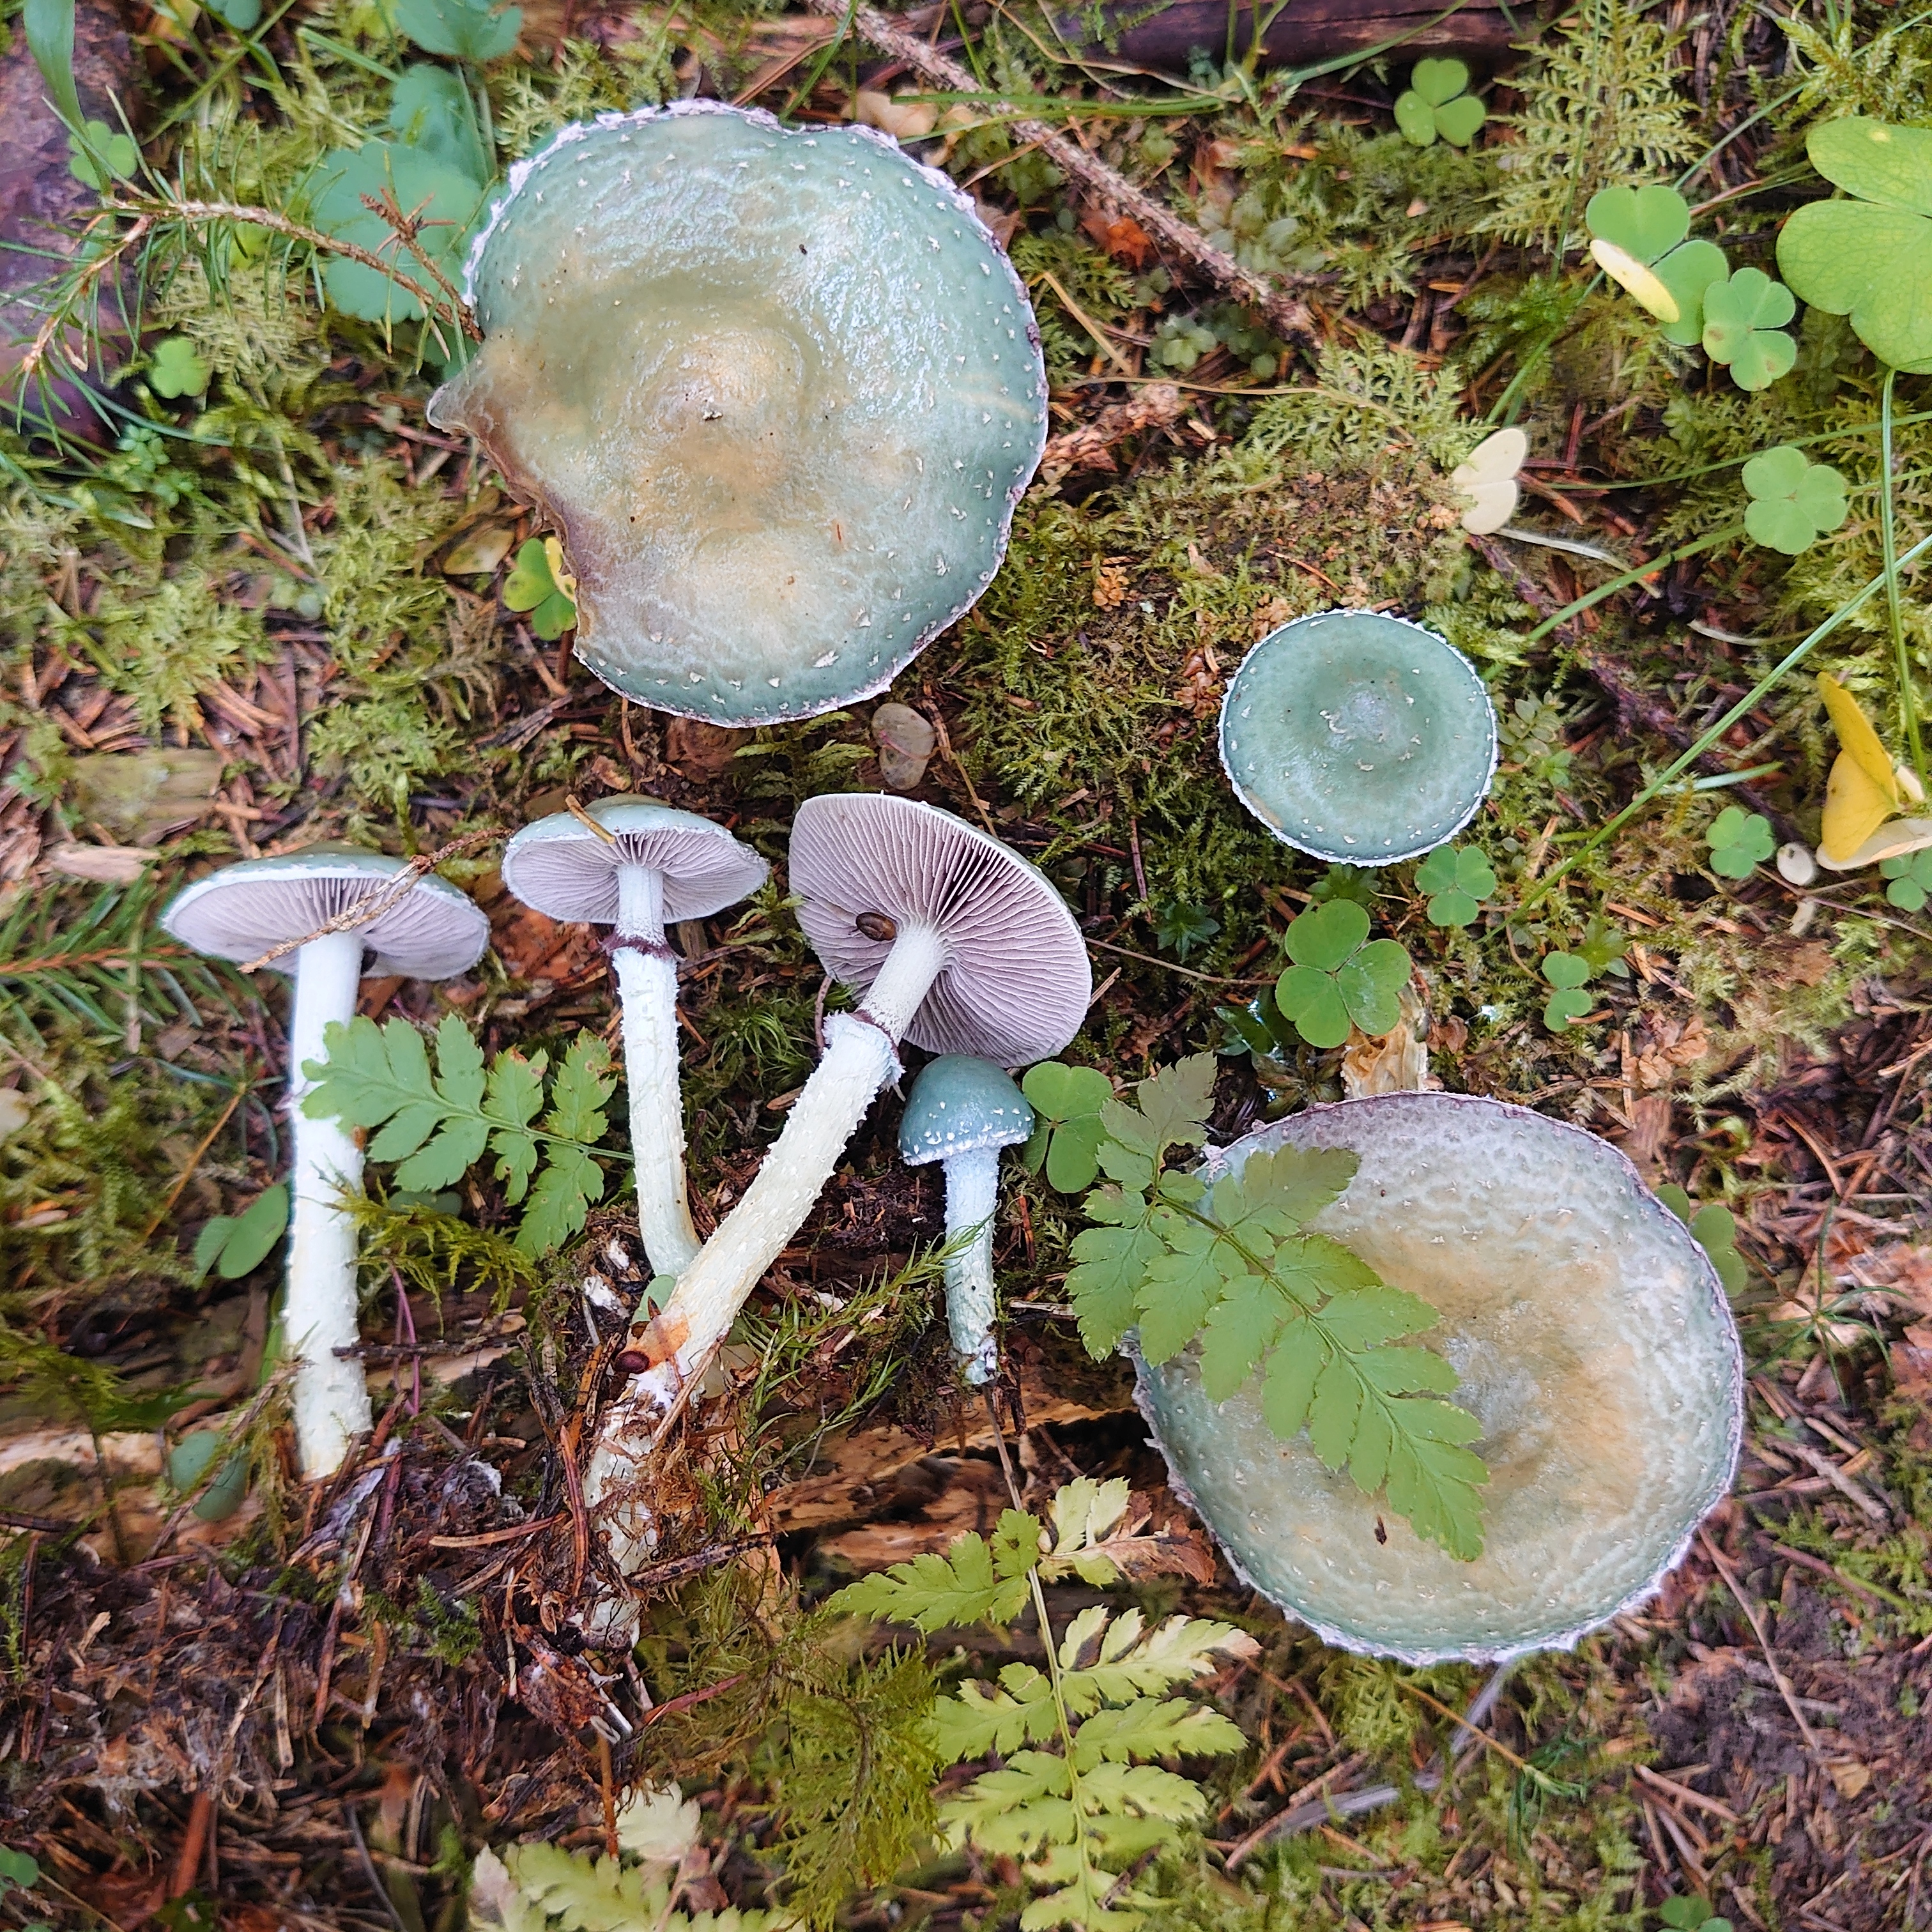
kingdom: Fungi
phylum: Basidiomycota
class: Agaricomycetes
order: Agaricales
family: Strophariaceae
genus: Stropharia
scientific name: Stropharia aeruginosa
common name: Verdigris roundhead
